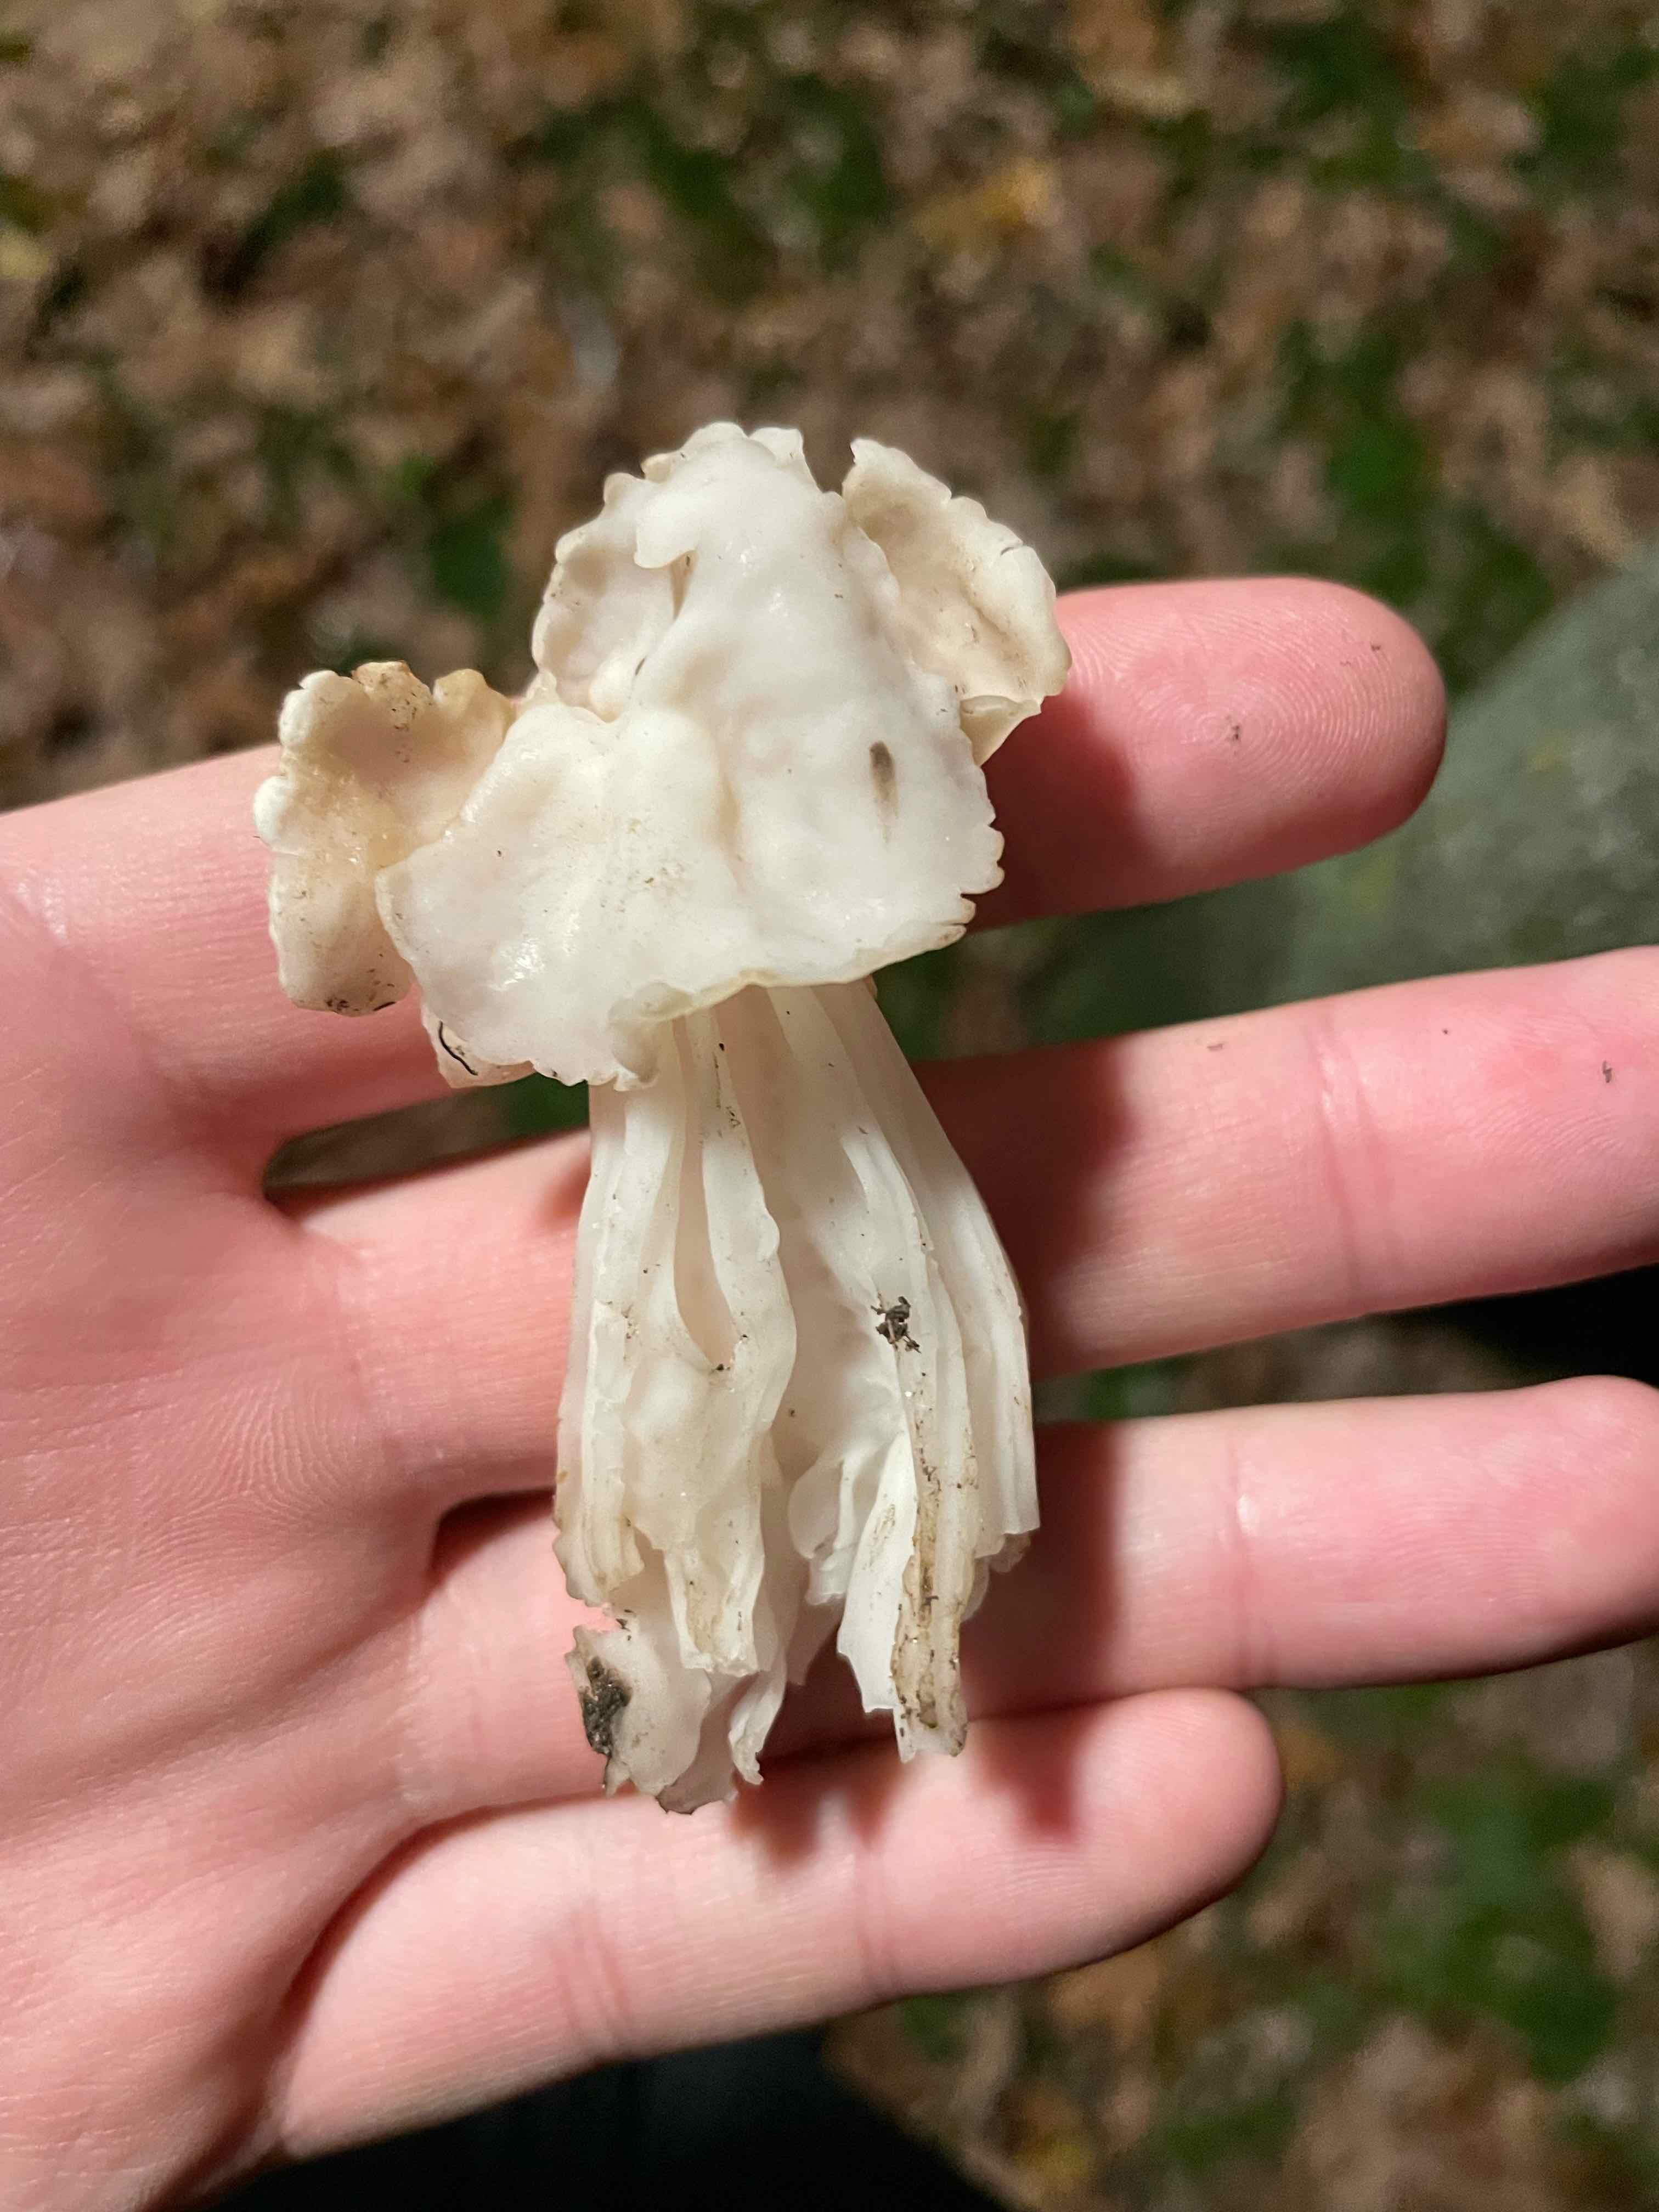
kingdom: Fungi
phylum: Ascomycota
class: Pezizomycetes
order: Pezizales
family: Helvellaceae
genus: Helvella
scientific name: Helvella crispa
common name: kruset foldhat
